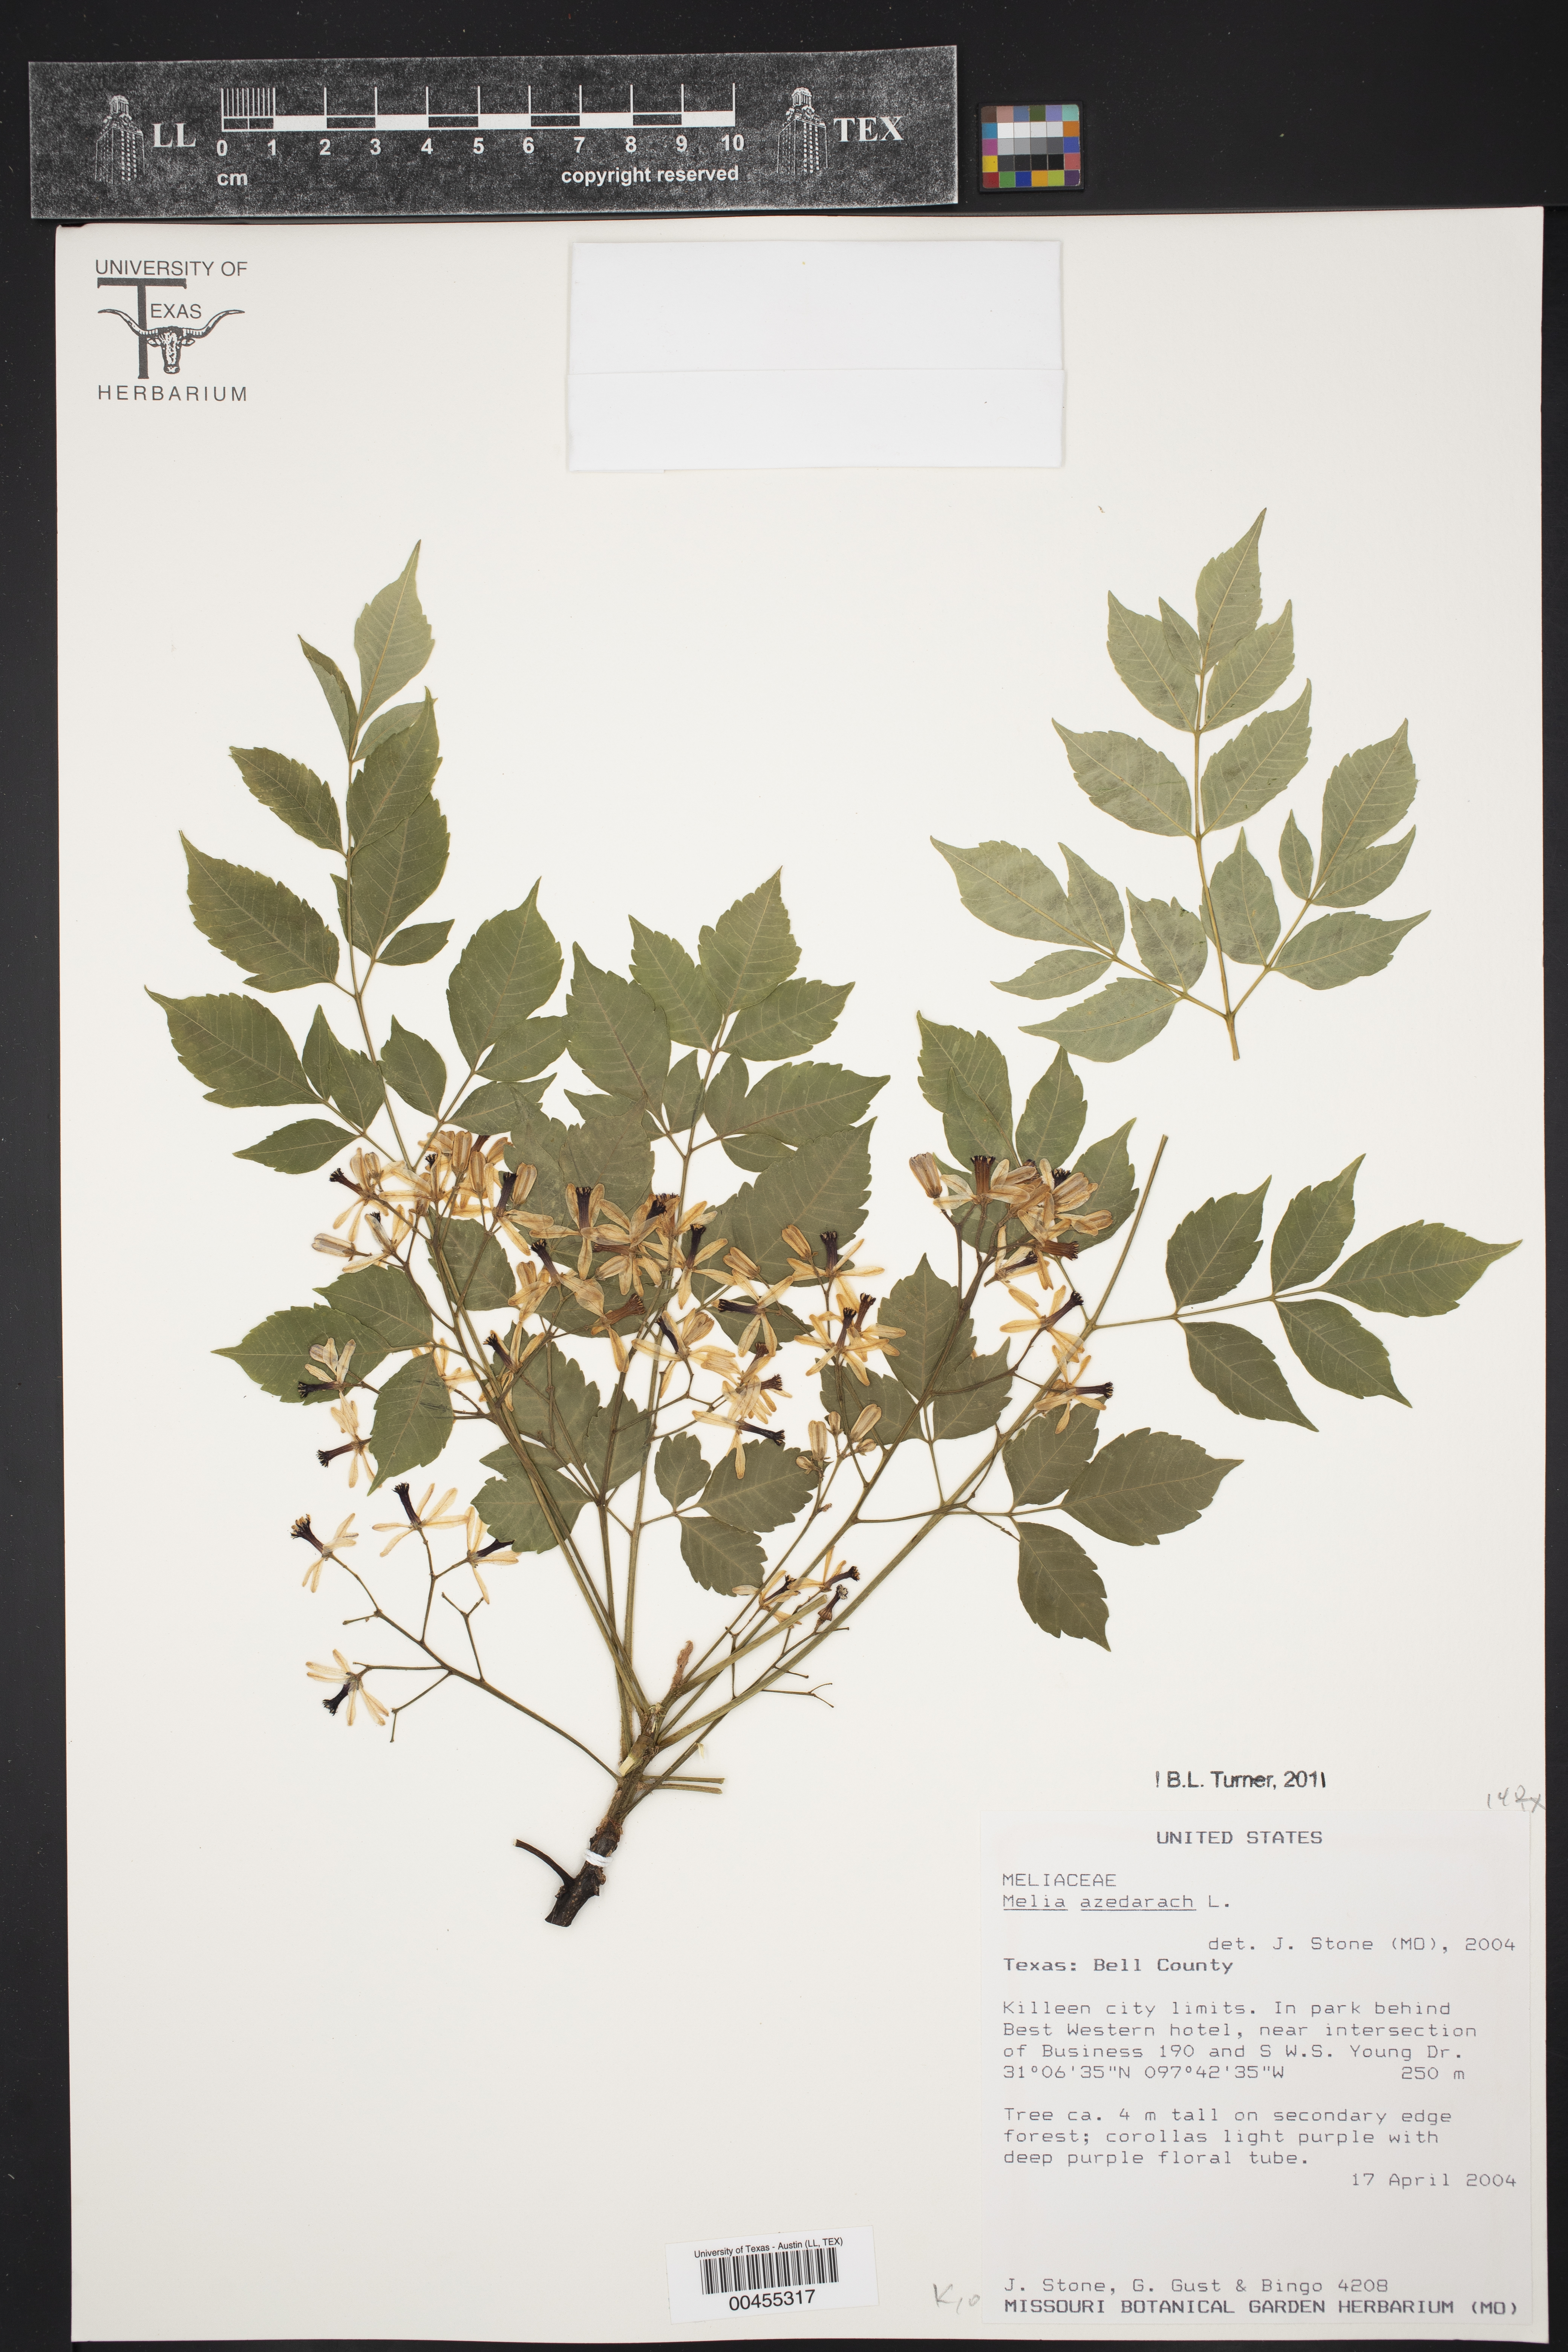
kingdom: Plantae
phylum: Tracheophyta
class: Magnoliopsida
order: Sapindales
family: Meliaceae
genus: Melia
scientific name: Melia azedarach
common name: Chinaberrytree
